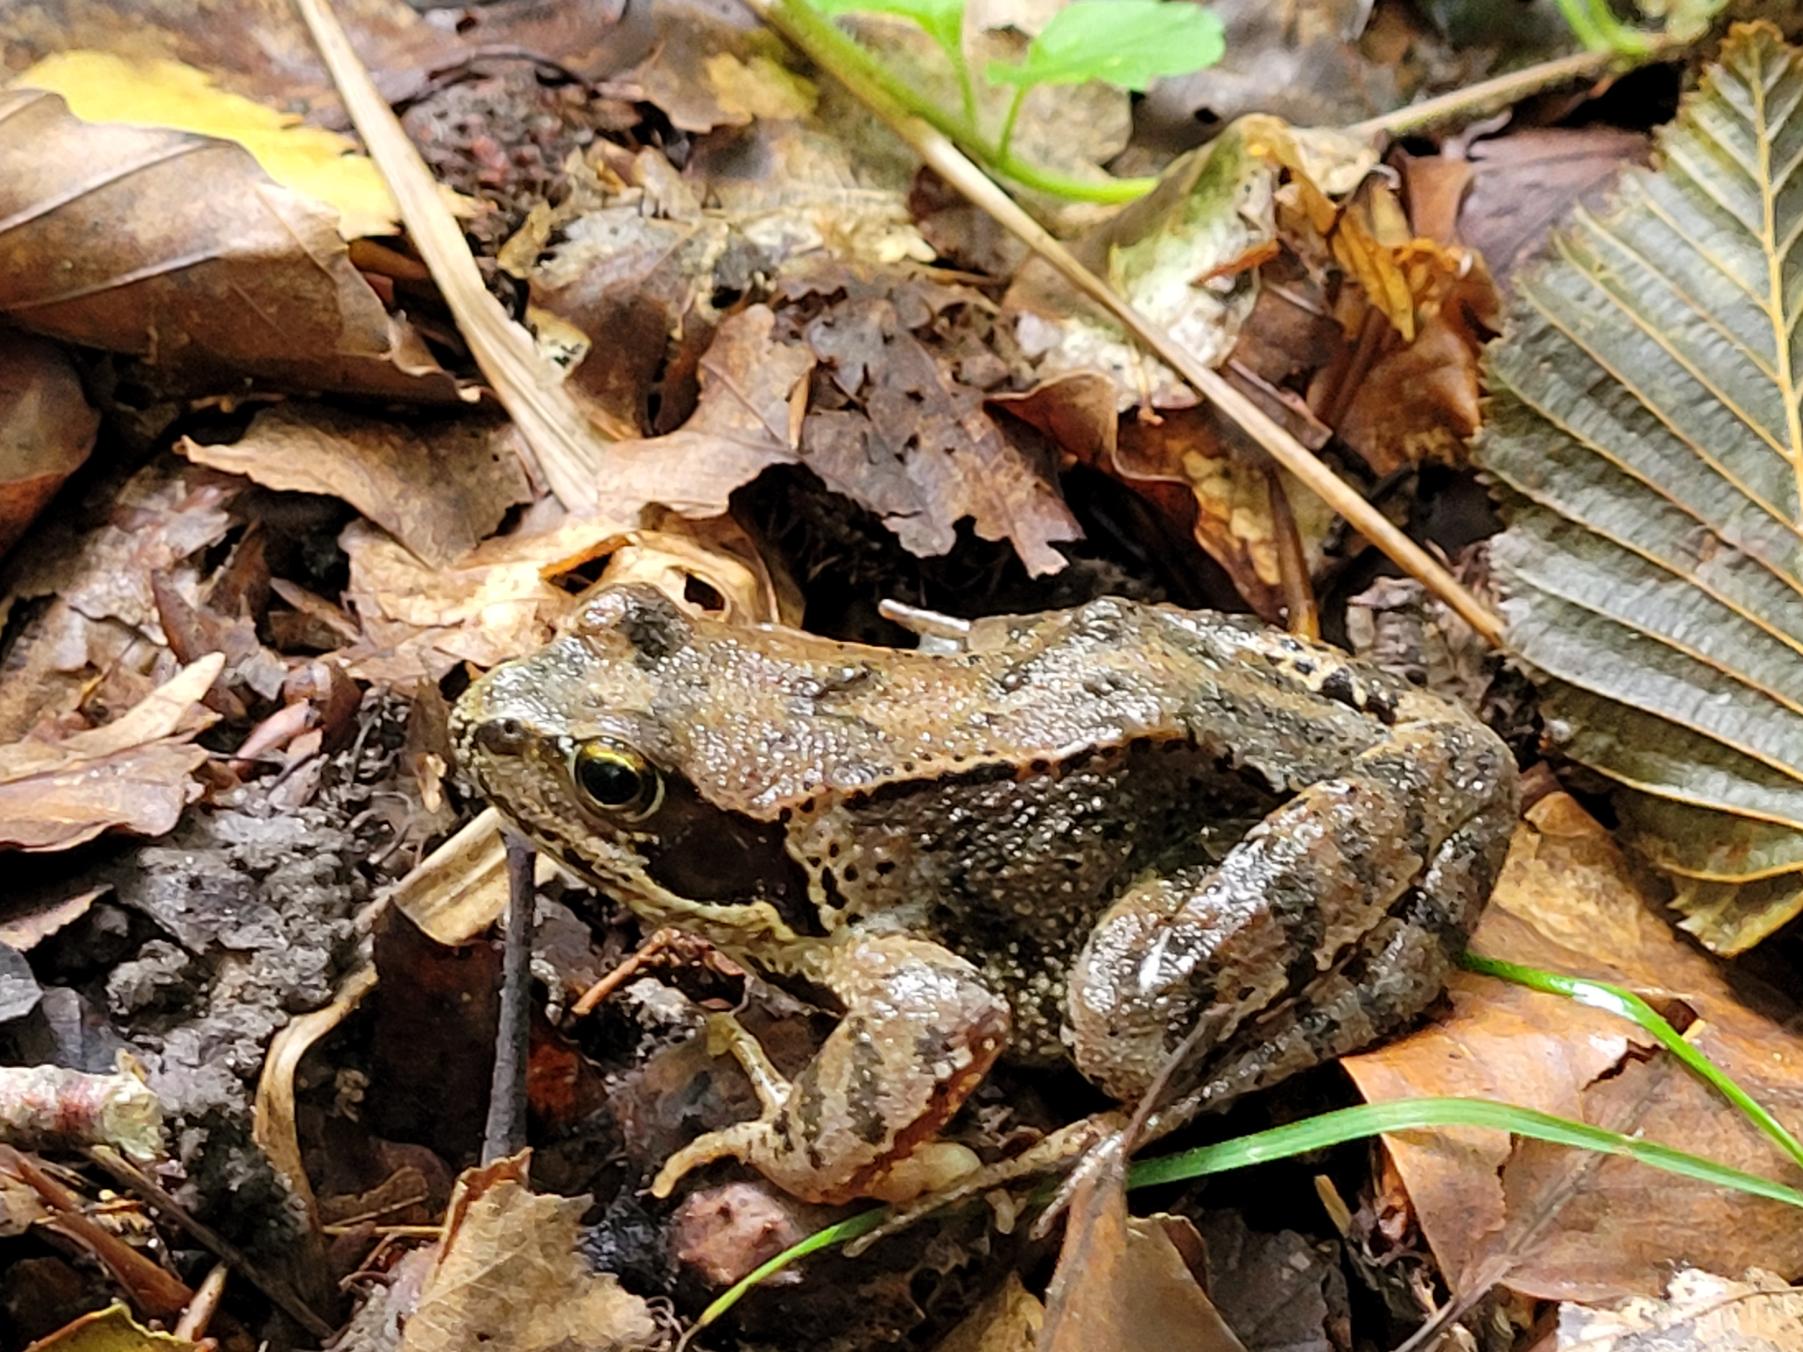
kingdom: Animalia
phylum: Chordata
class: Amphibia
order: Anura
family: Ranidae
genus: Rana
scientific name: Rana temporaria
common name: Butsnudet frø
